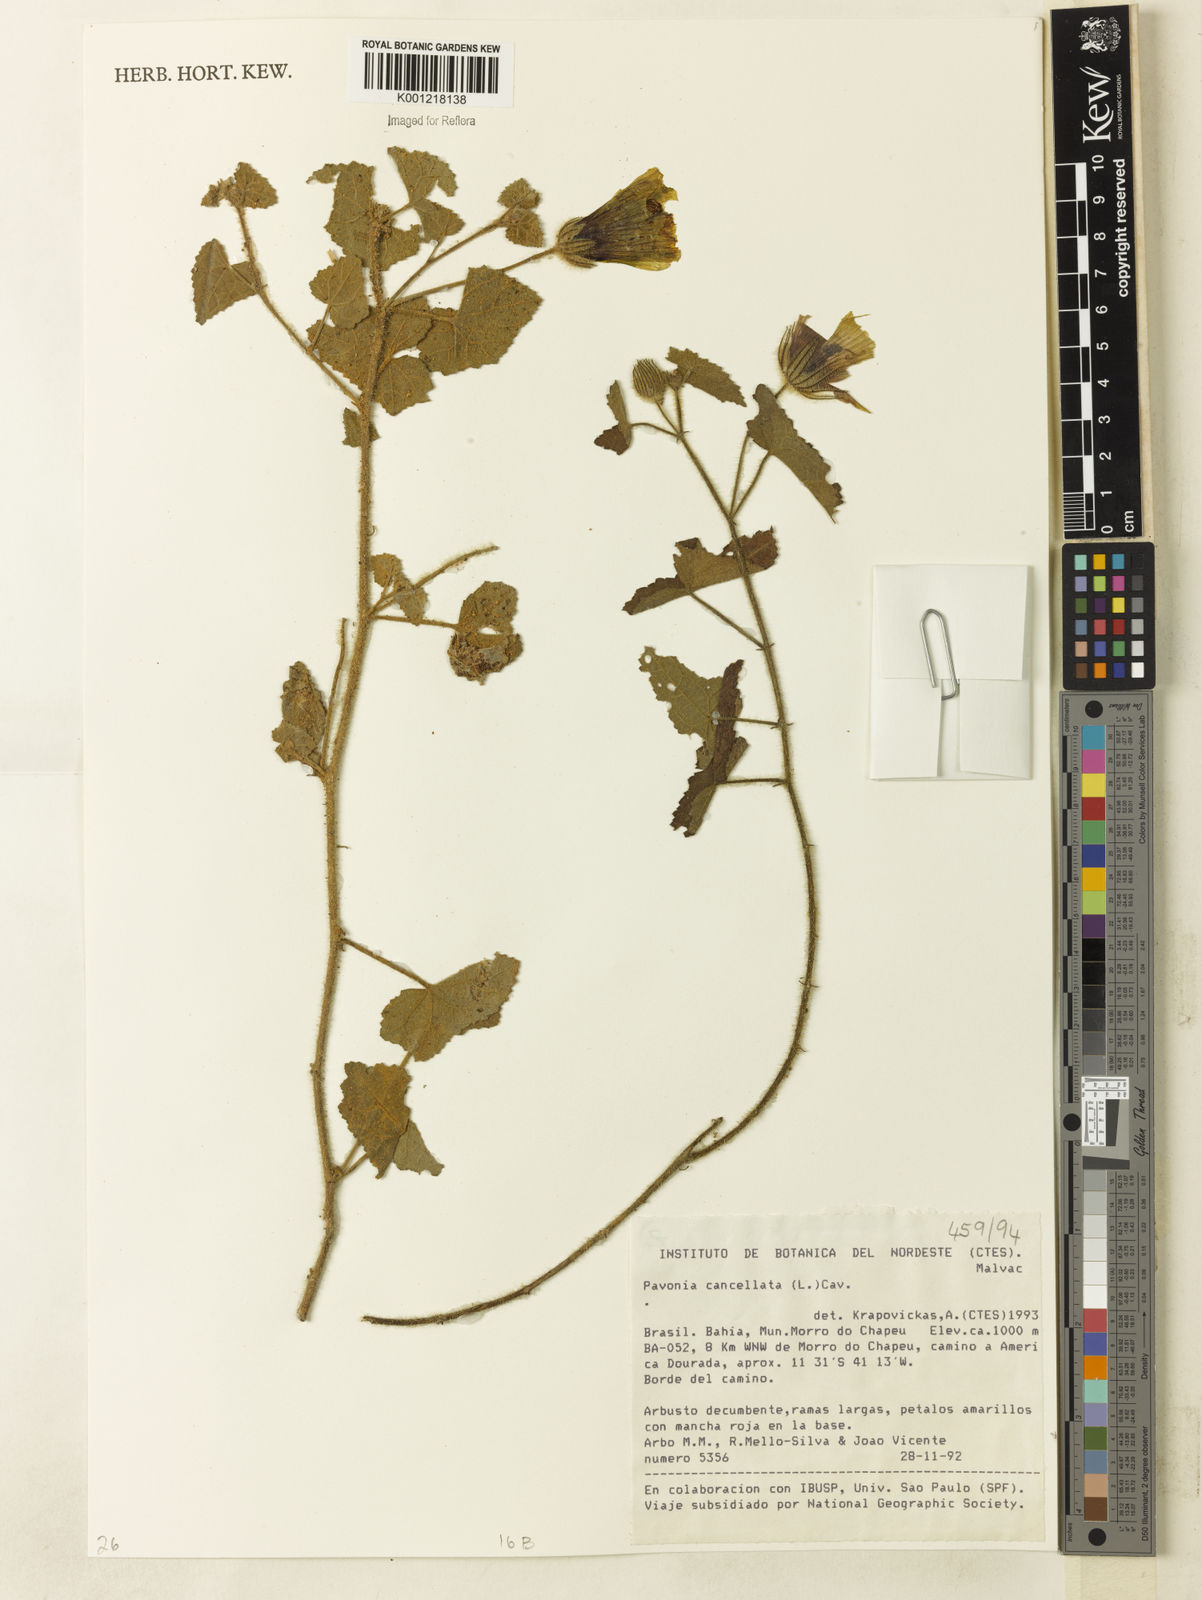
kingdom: Plantae
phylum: Tracheophyta
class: Magnoliopsida
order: Malvales
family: Malvaceae
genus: Pavonia
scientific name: Pavonia cancellata
